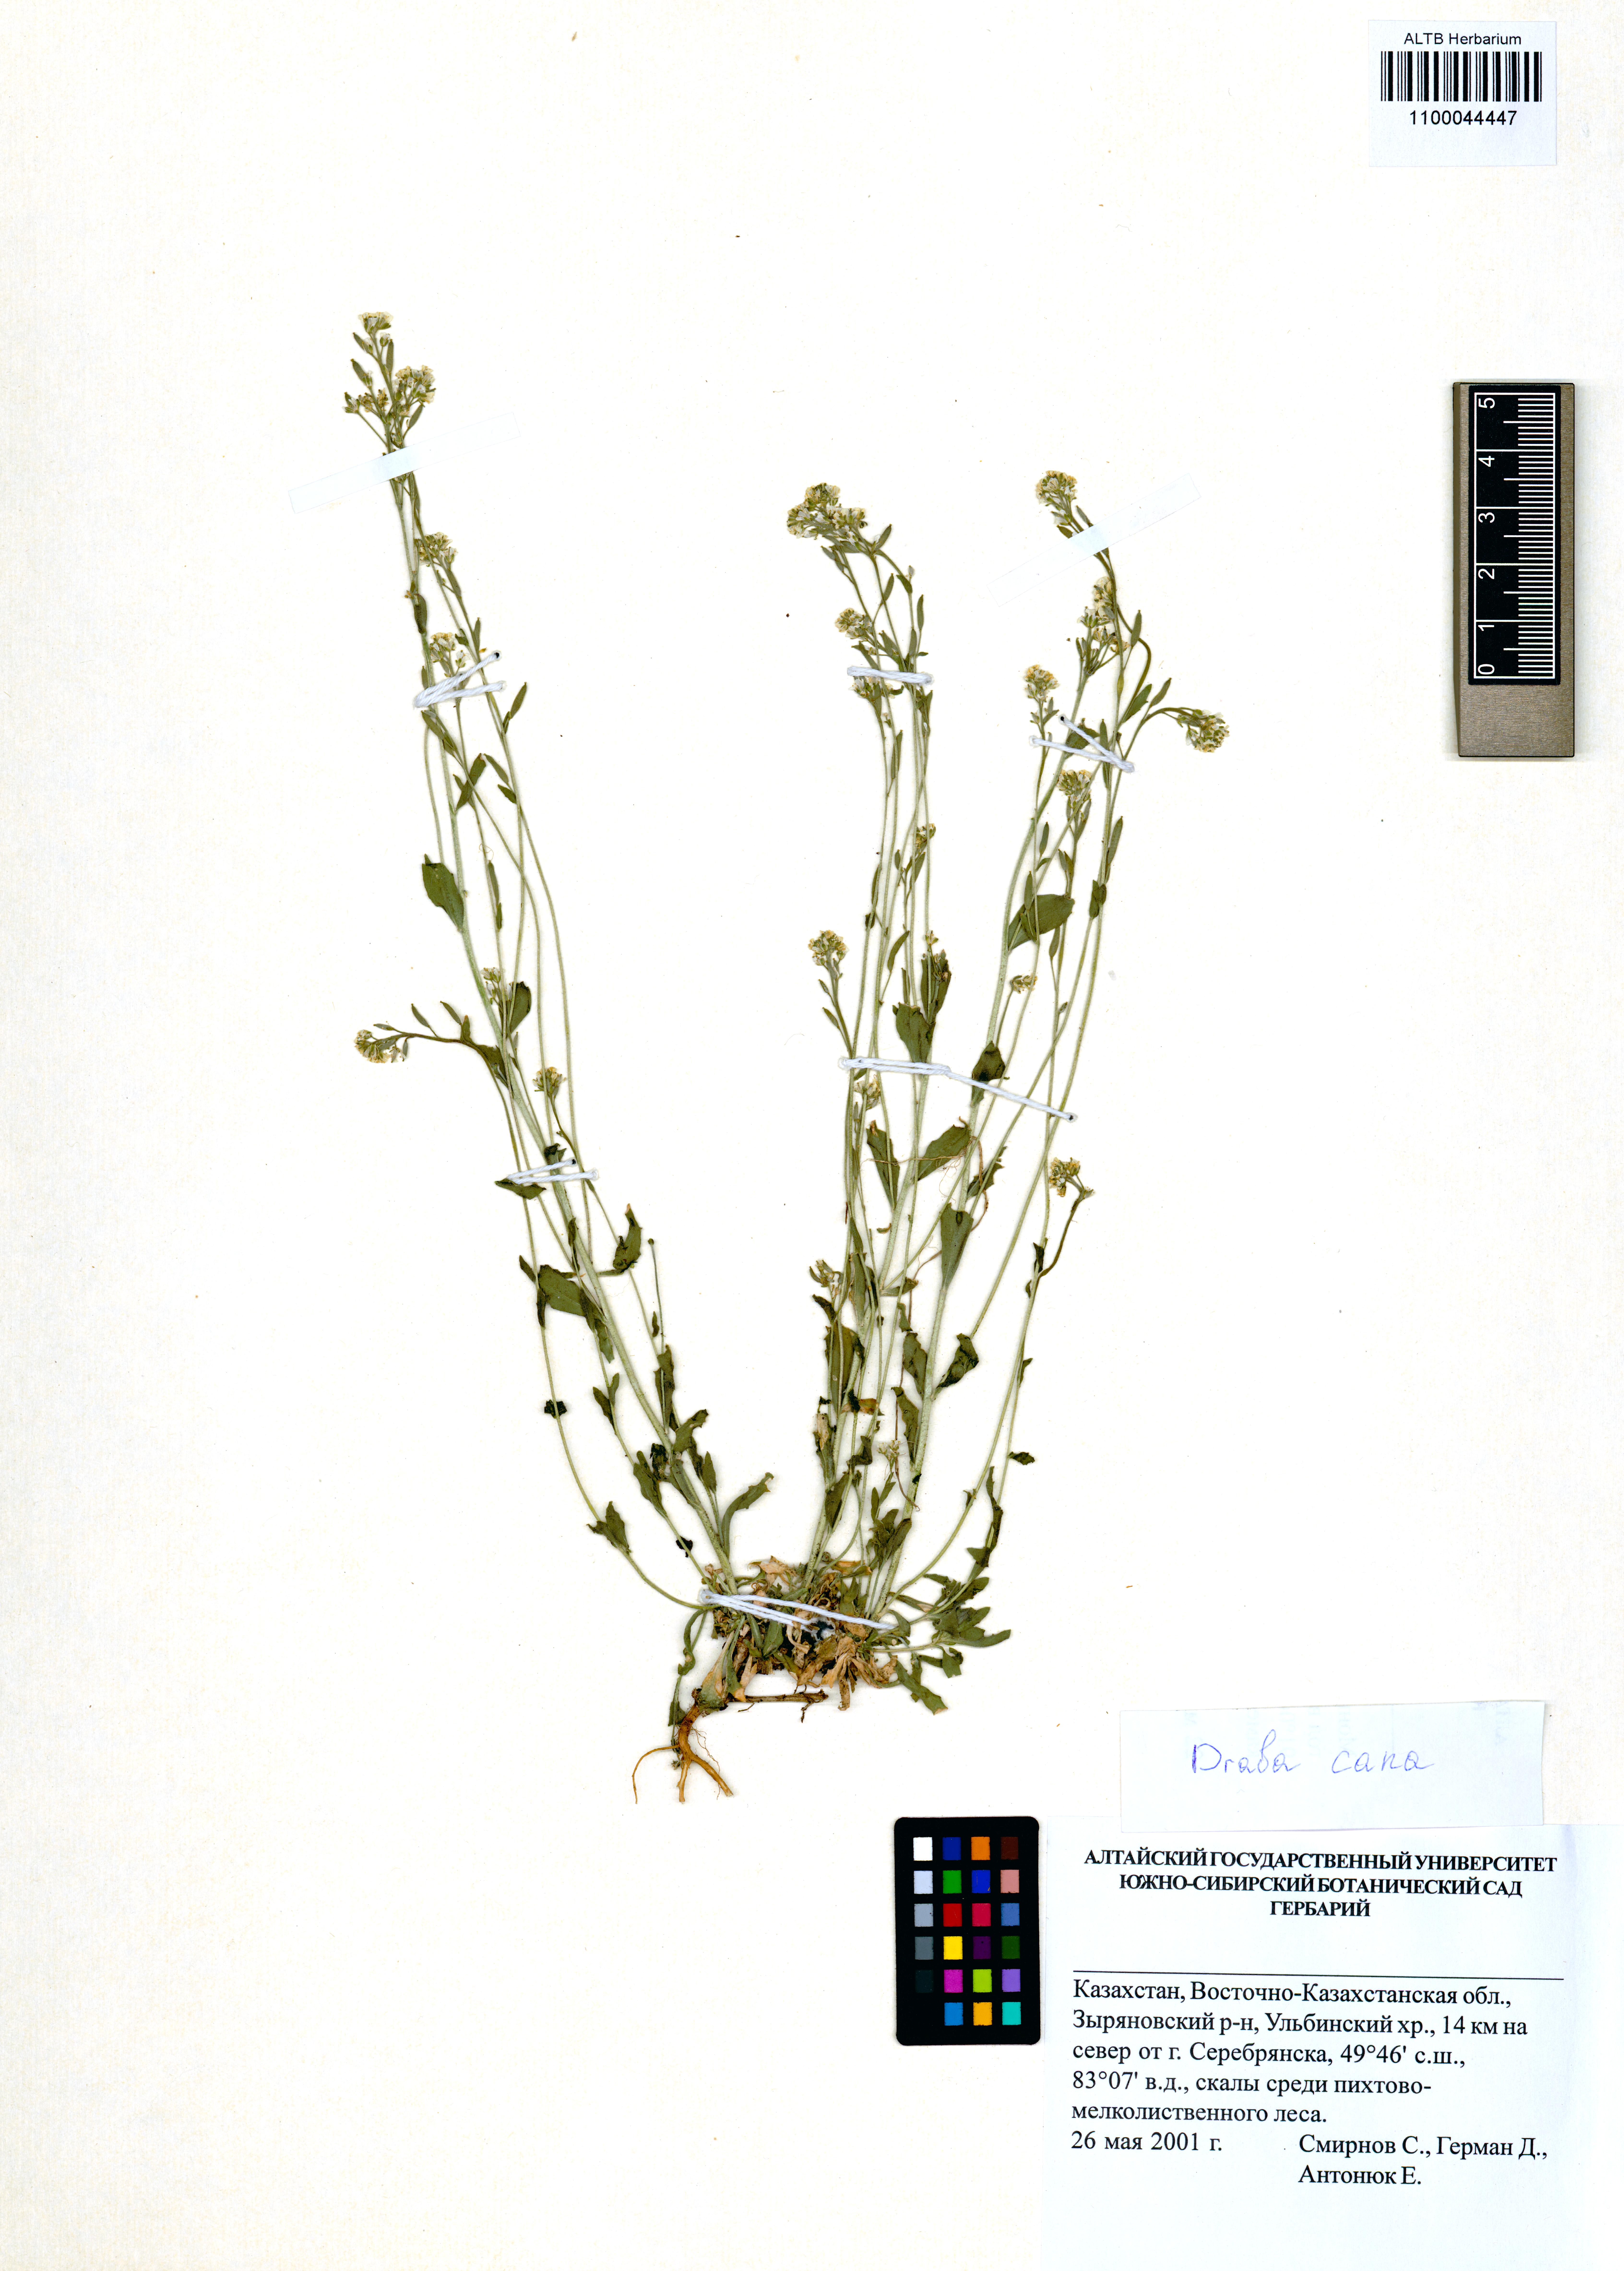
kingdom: Plantae
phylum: Tracheophyta
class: Magnoliopsida
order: Brassicales
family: Brassicaceae
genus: Draba
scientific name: Draba cana
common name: Hoary draba
